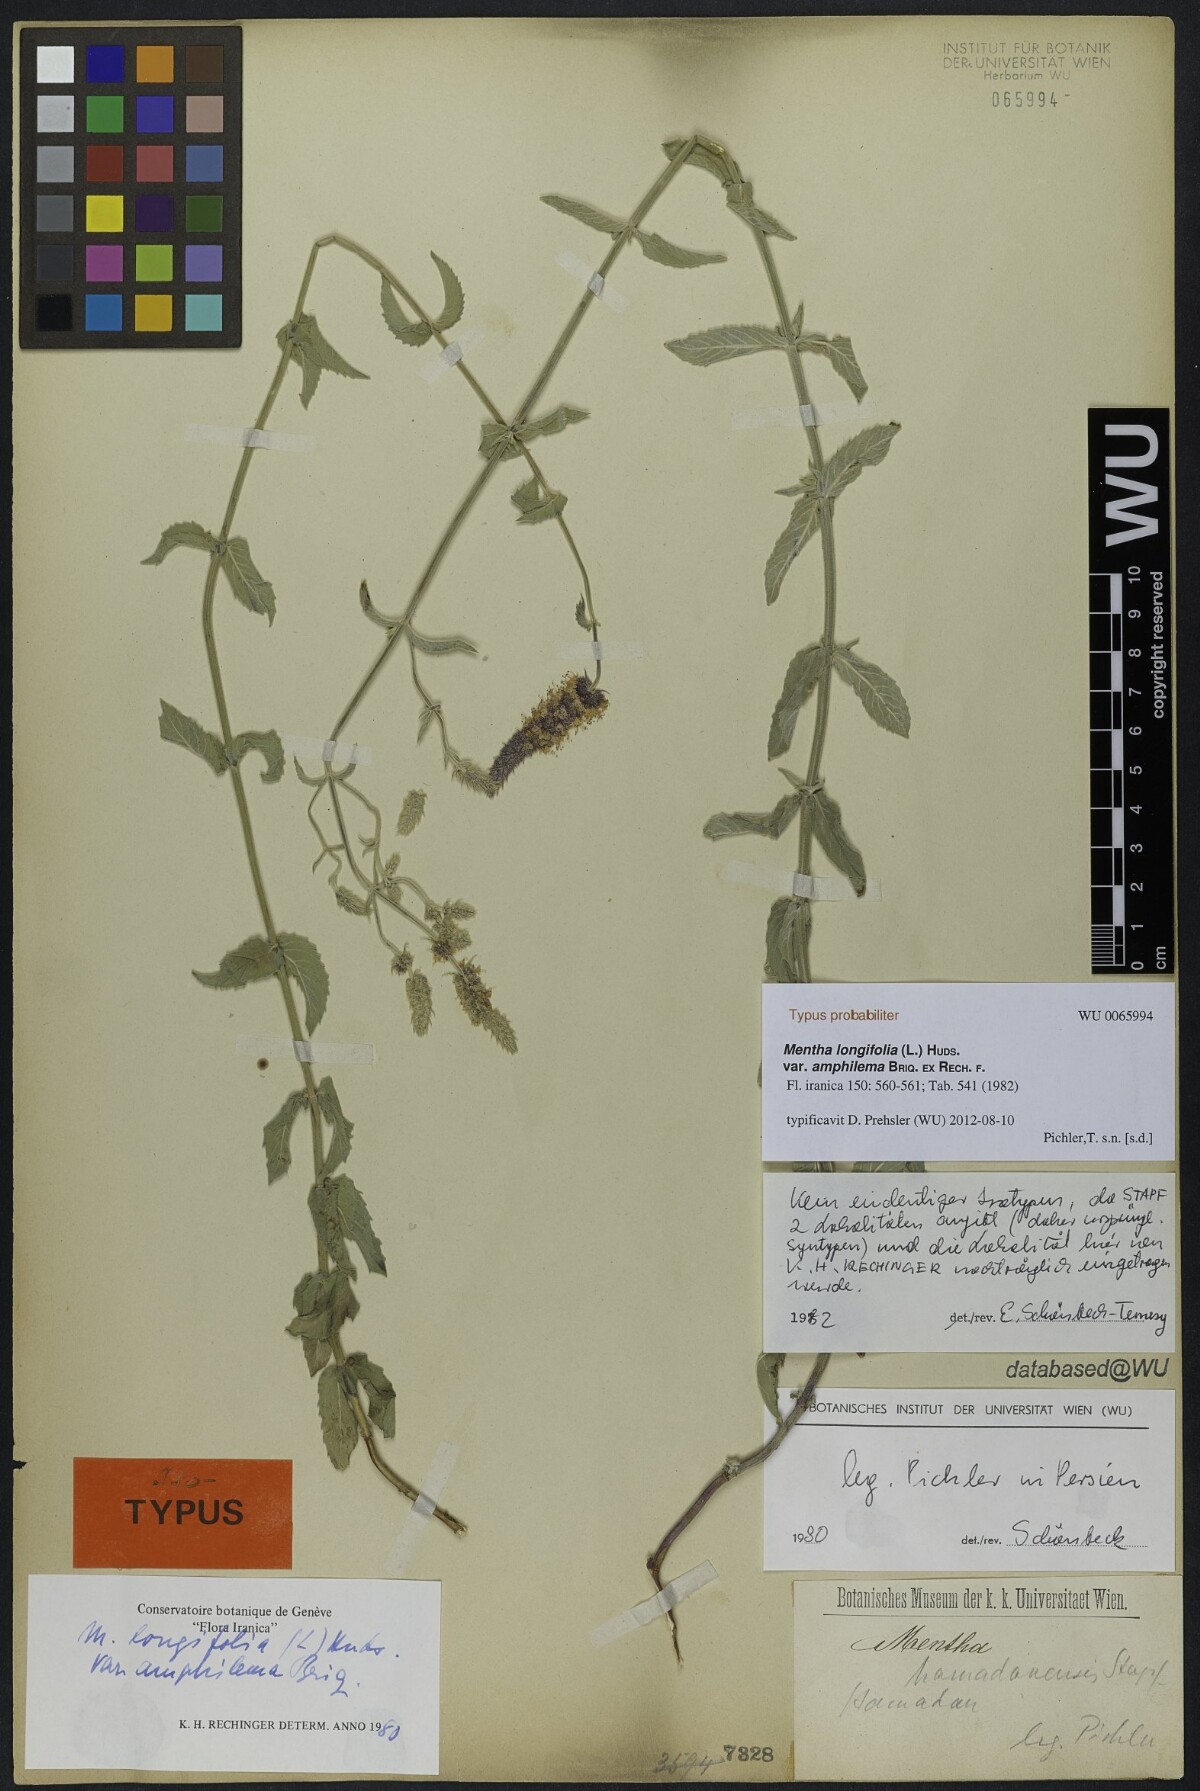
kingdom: Plantae
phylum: Tracheophyta
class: Magnoliopsida
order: Lamiales
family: Lamiaceae
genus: Mentha
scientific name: Mentha longifolia
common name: Horse mint
